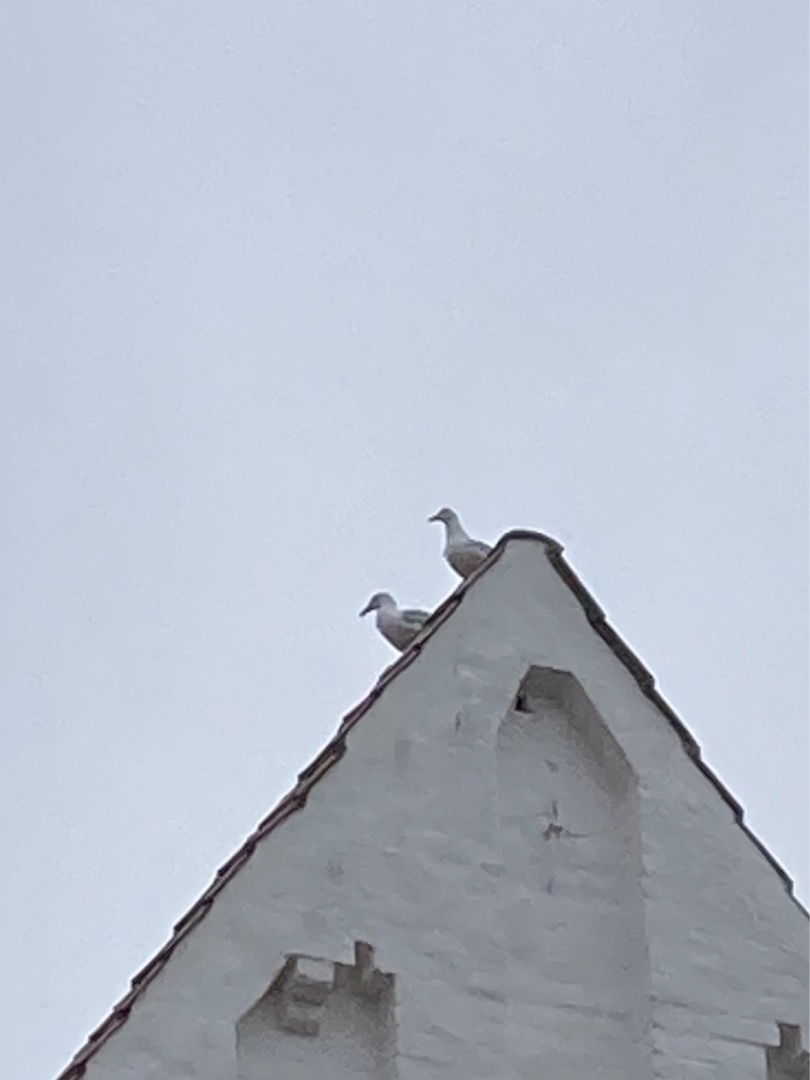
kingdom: Animalia
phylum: Chordata
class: Aves
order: Charadriiformes
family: Laridae
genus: Larus
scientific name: Larus argentatus
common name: Sølvmåge
